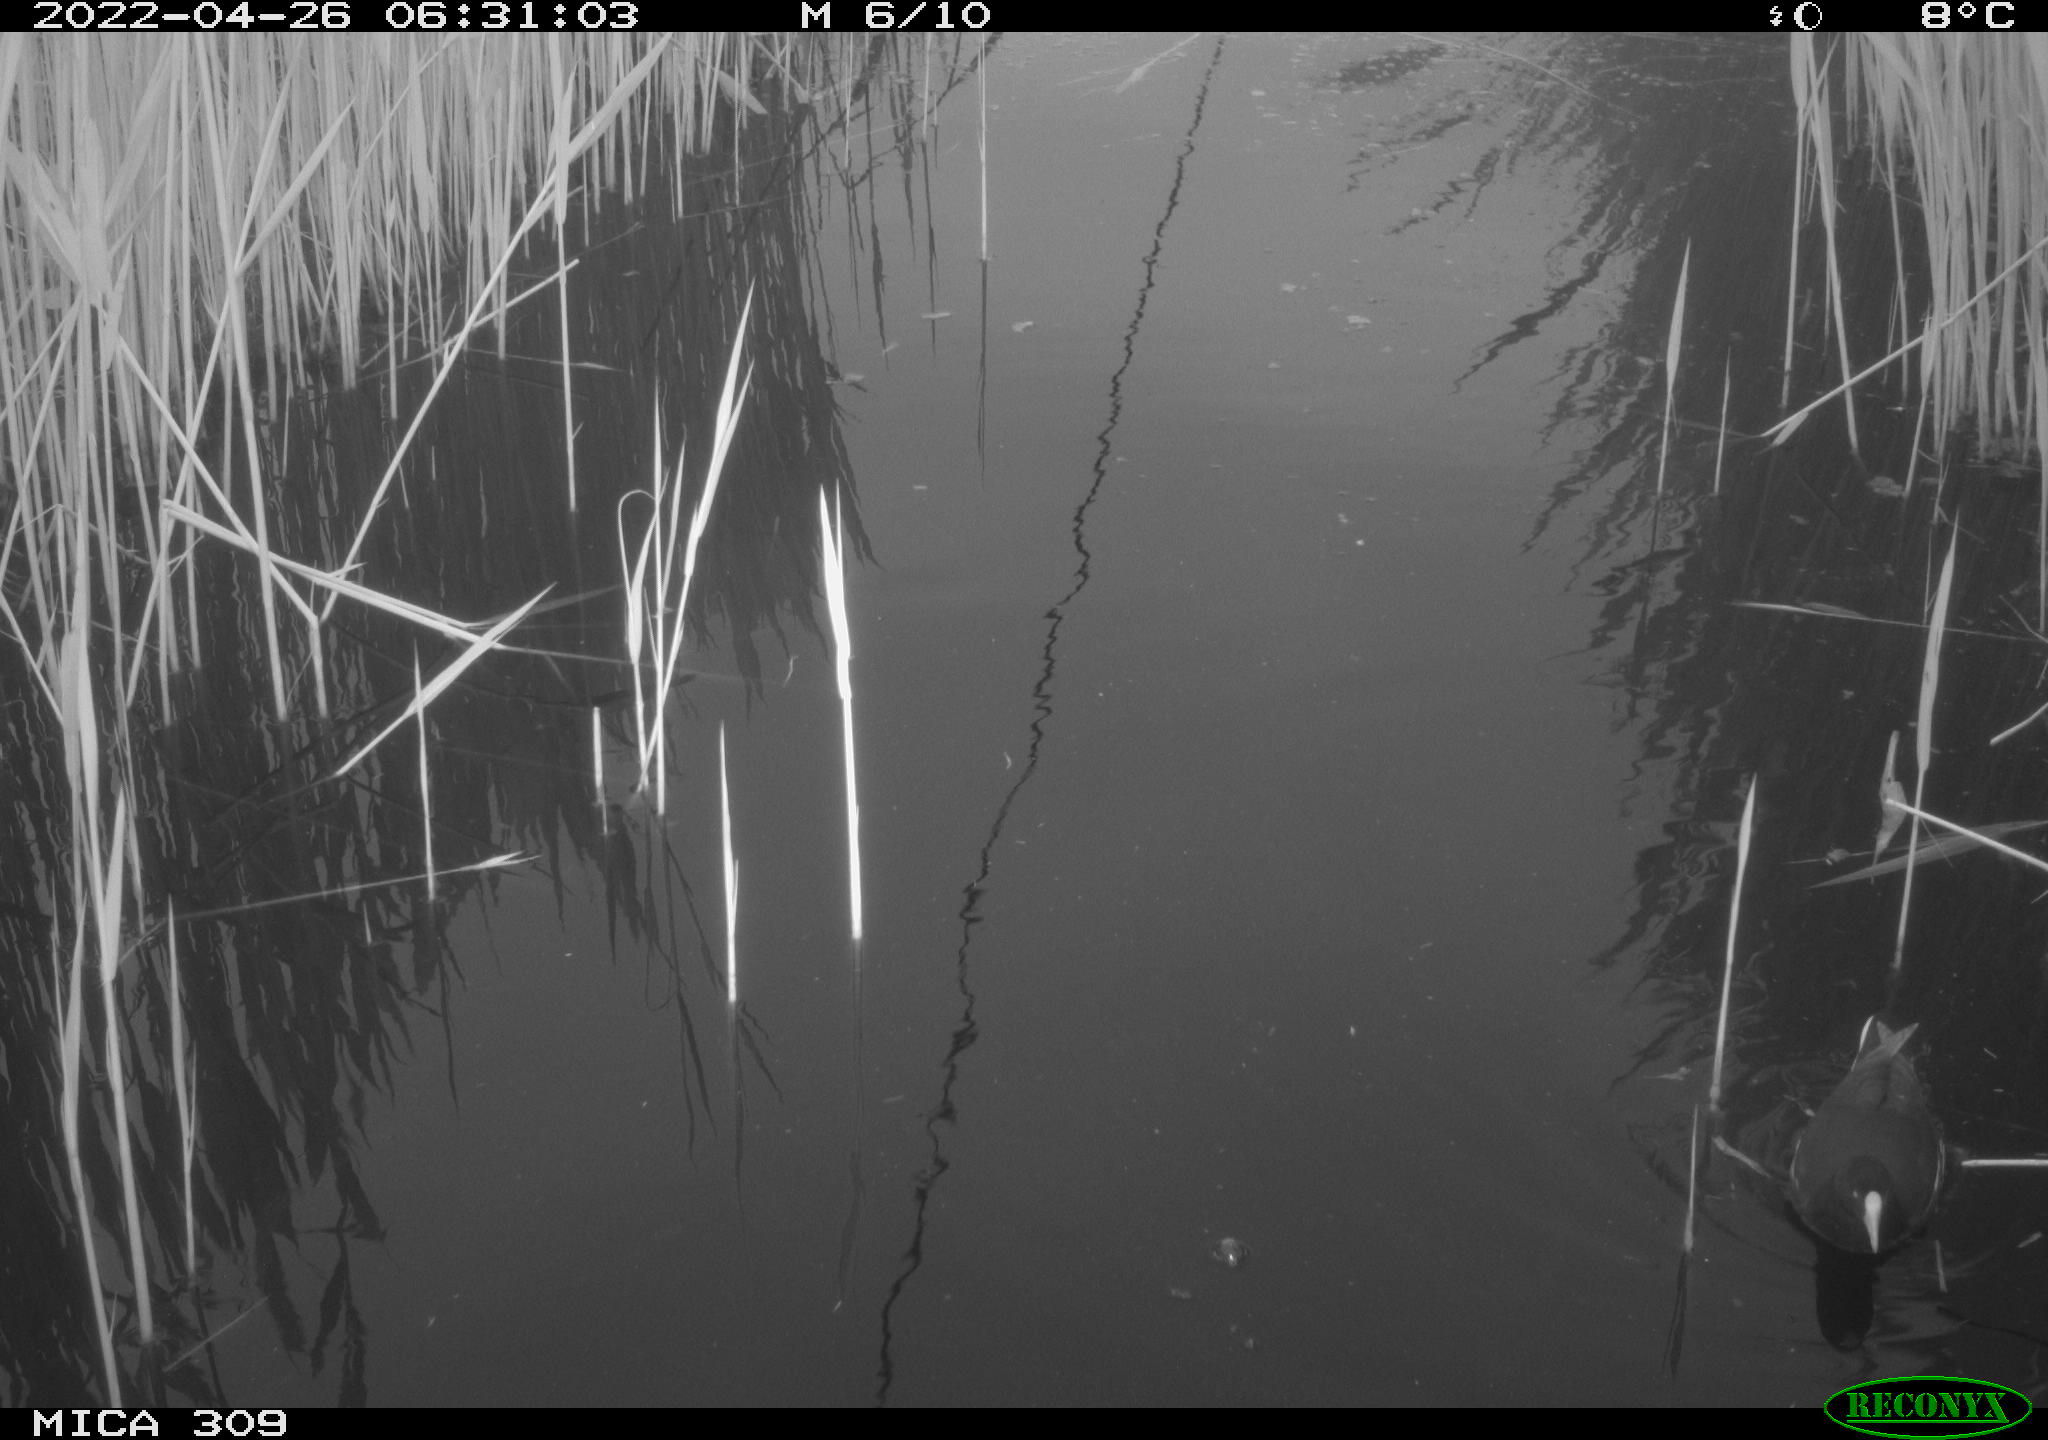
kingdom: Animalia
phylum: Chordata
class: Aves
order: Gruiformes
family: Rallidae
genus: Gallinula
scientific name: Gallinula chloropus
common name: Common moorhen
